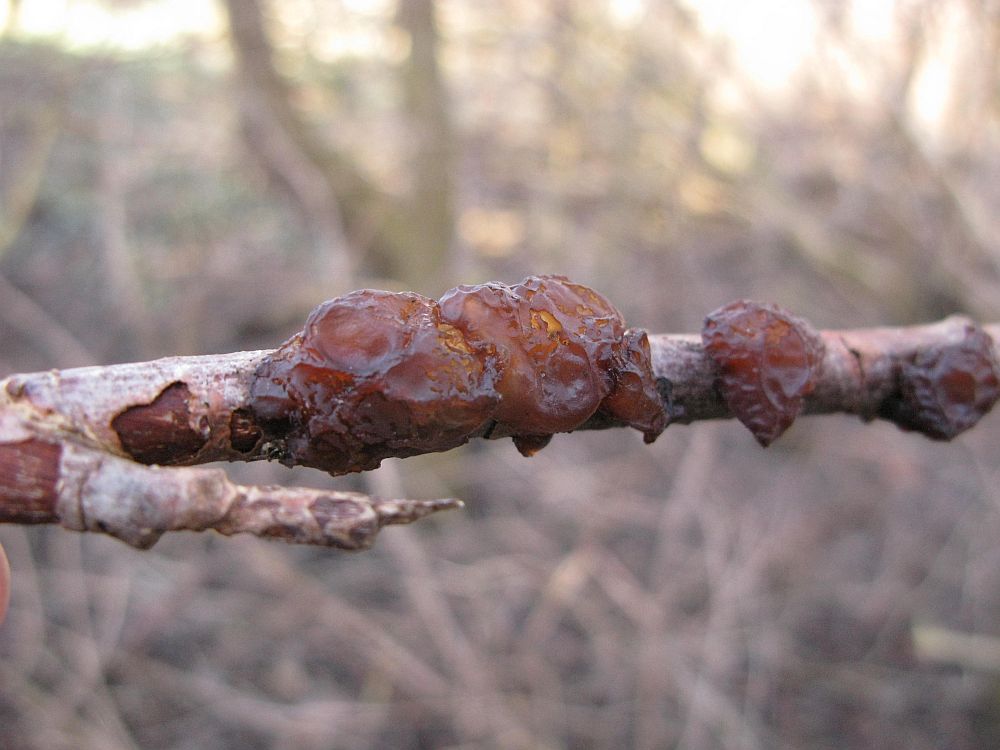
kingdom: Fungi
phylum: Basidiomycota
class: Agaricomycetes
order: Auriculariales
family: Auriculariaceae
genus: Exidia
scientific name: Exidia recisa
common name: pile-bævretop
